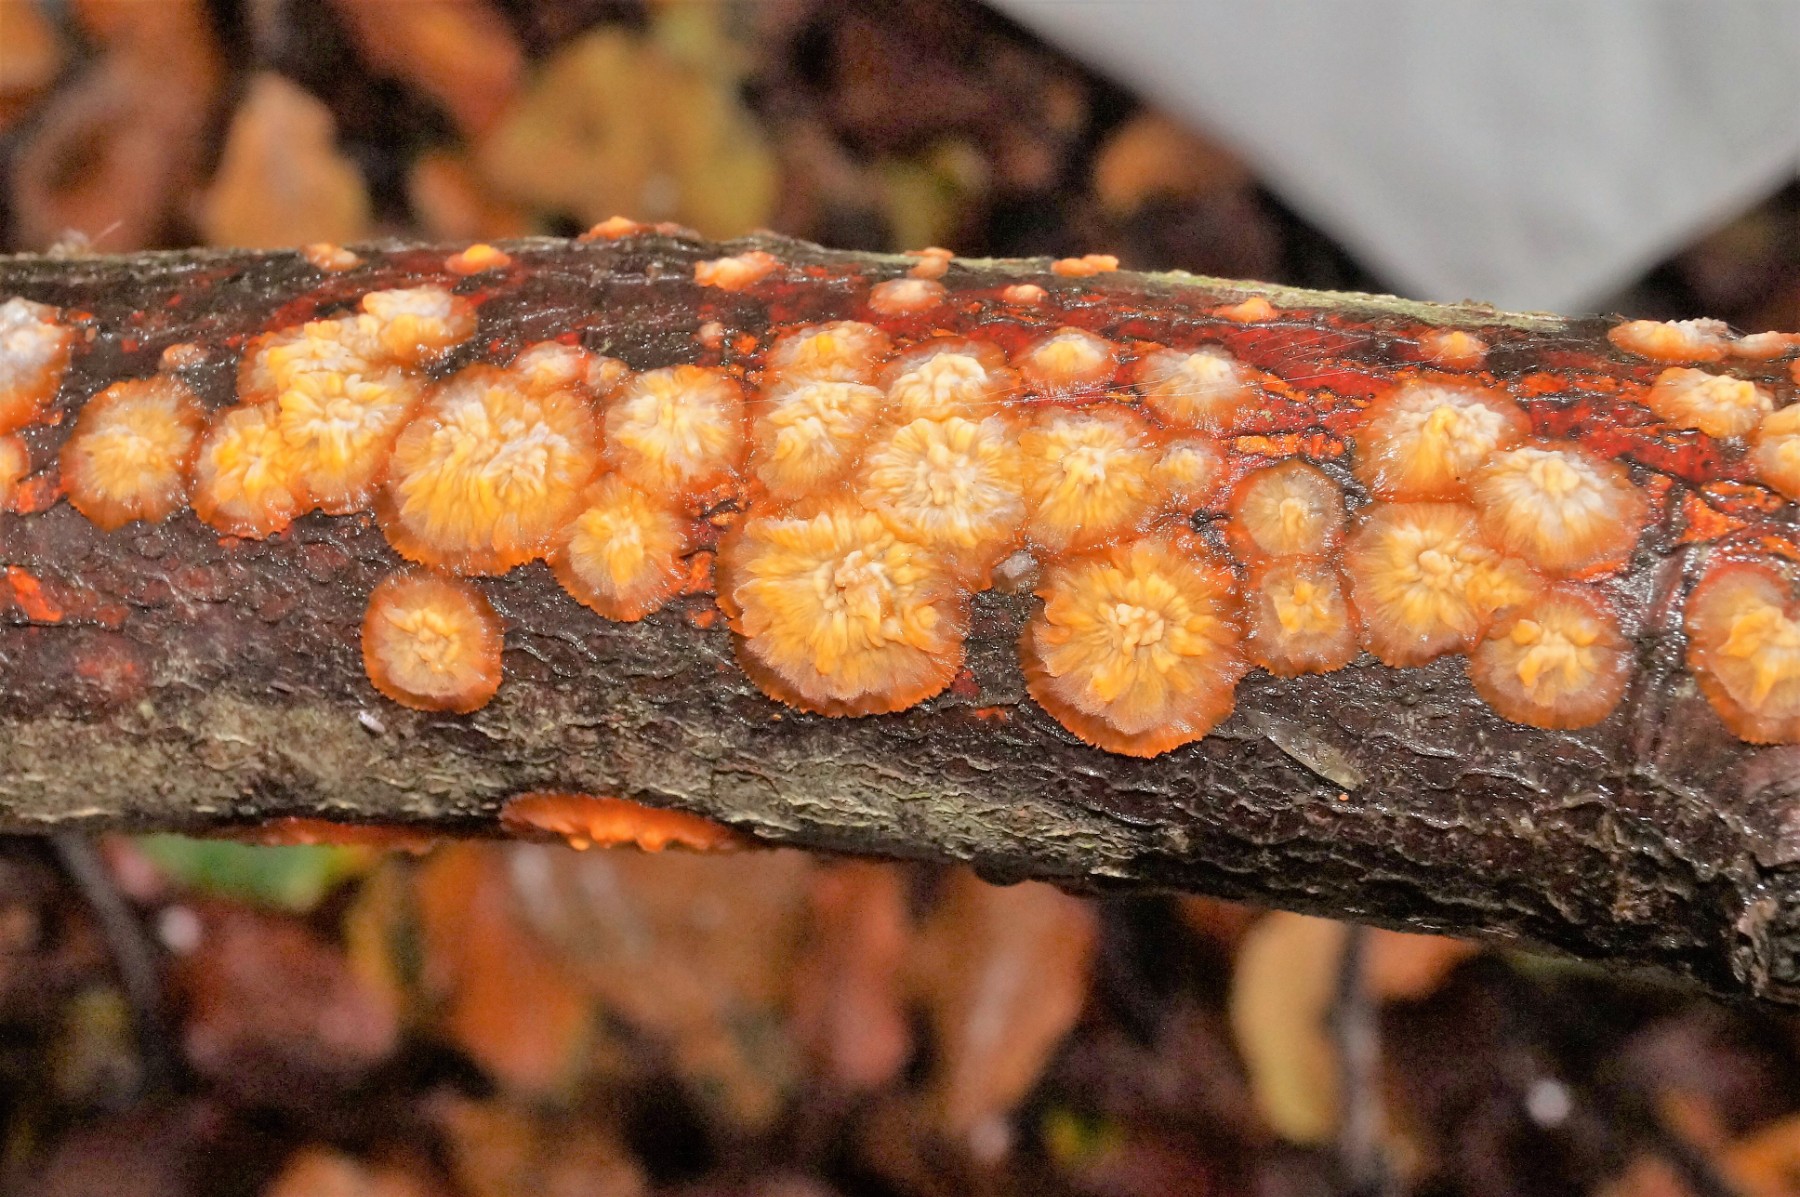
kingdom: Fungi
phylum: Basidiomycota
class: Agaricomycetes
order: Polyporales
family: Meruliaceae
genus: Phlebia
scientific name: Phlebia radiata
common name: stråle-åresvamp
